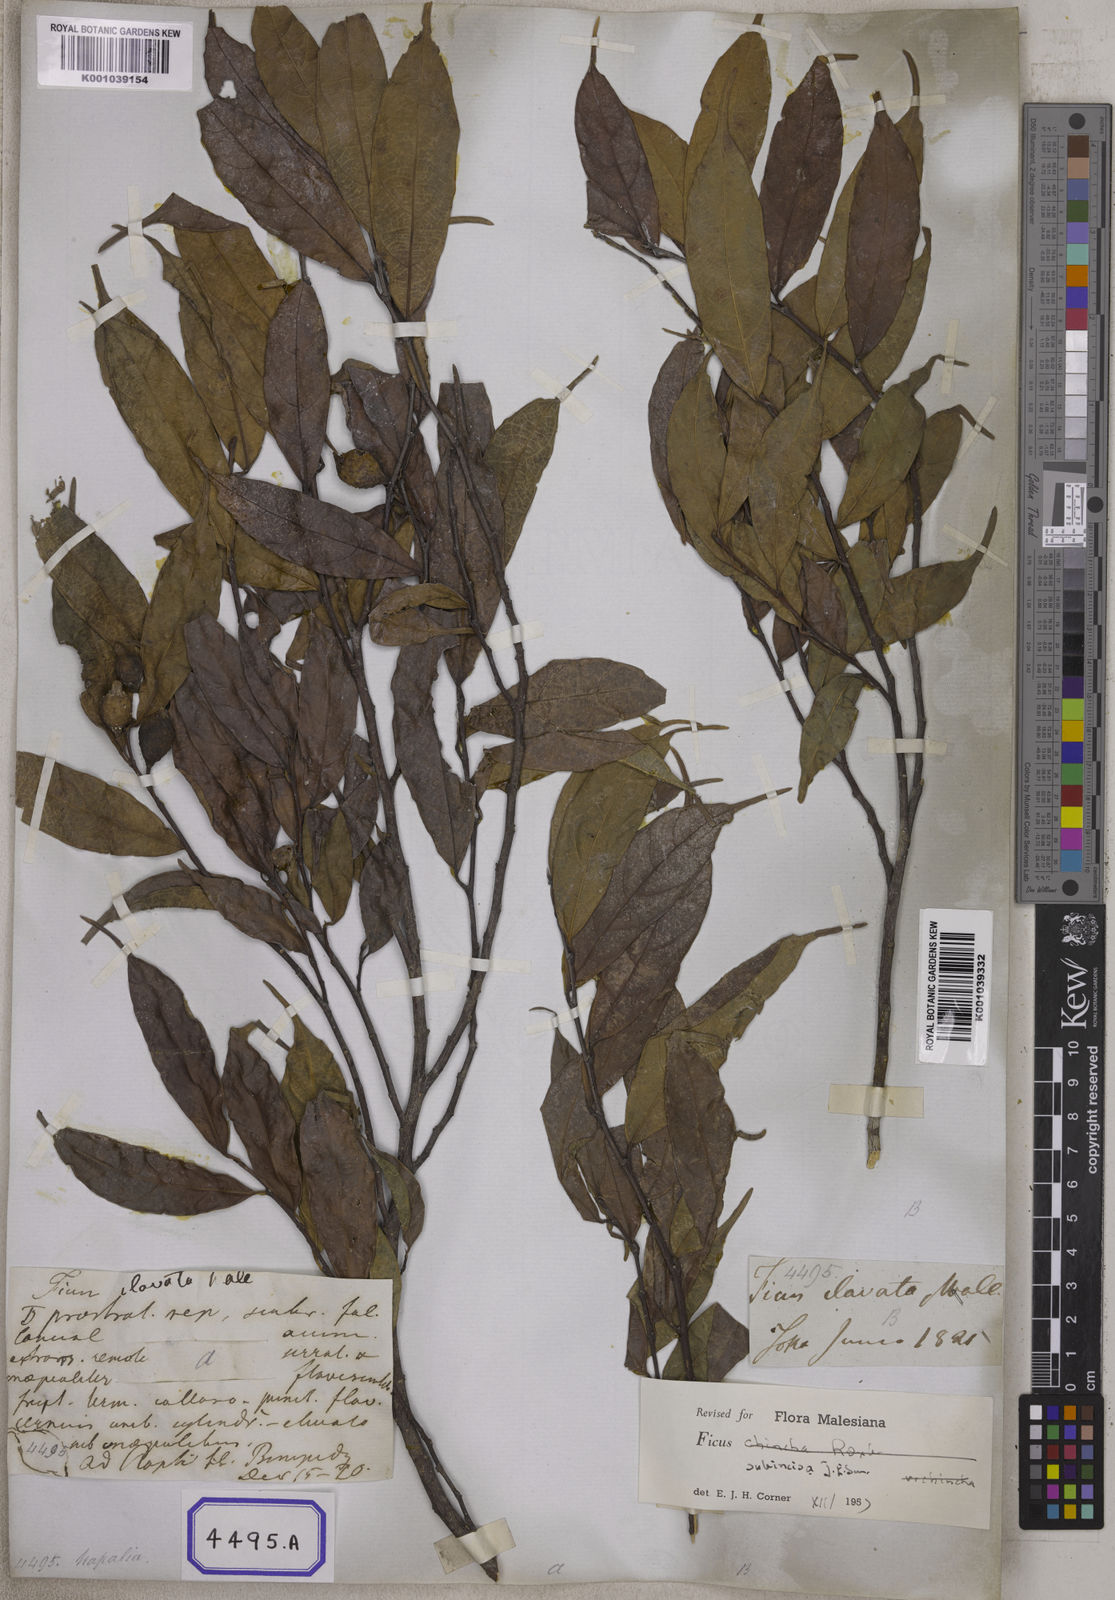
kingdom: Plantae
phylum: Tracheophyta
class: Magnoliopsida
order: Rosales
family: Moraceae
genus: Ficus
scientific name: Ficus
